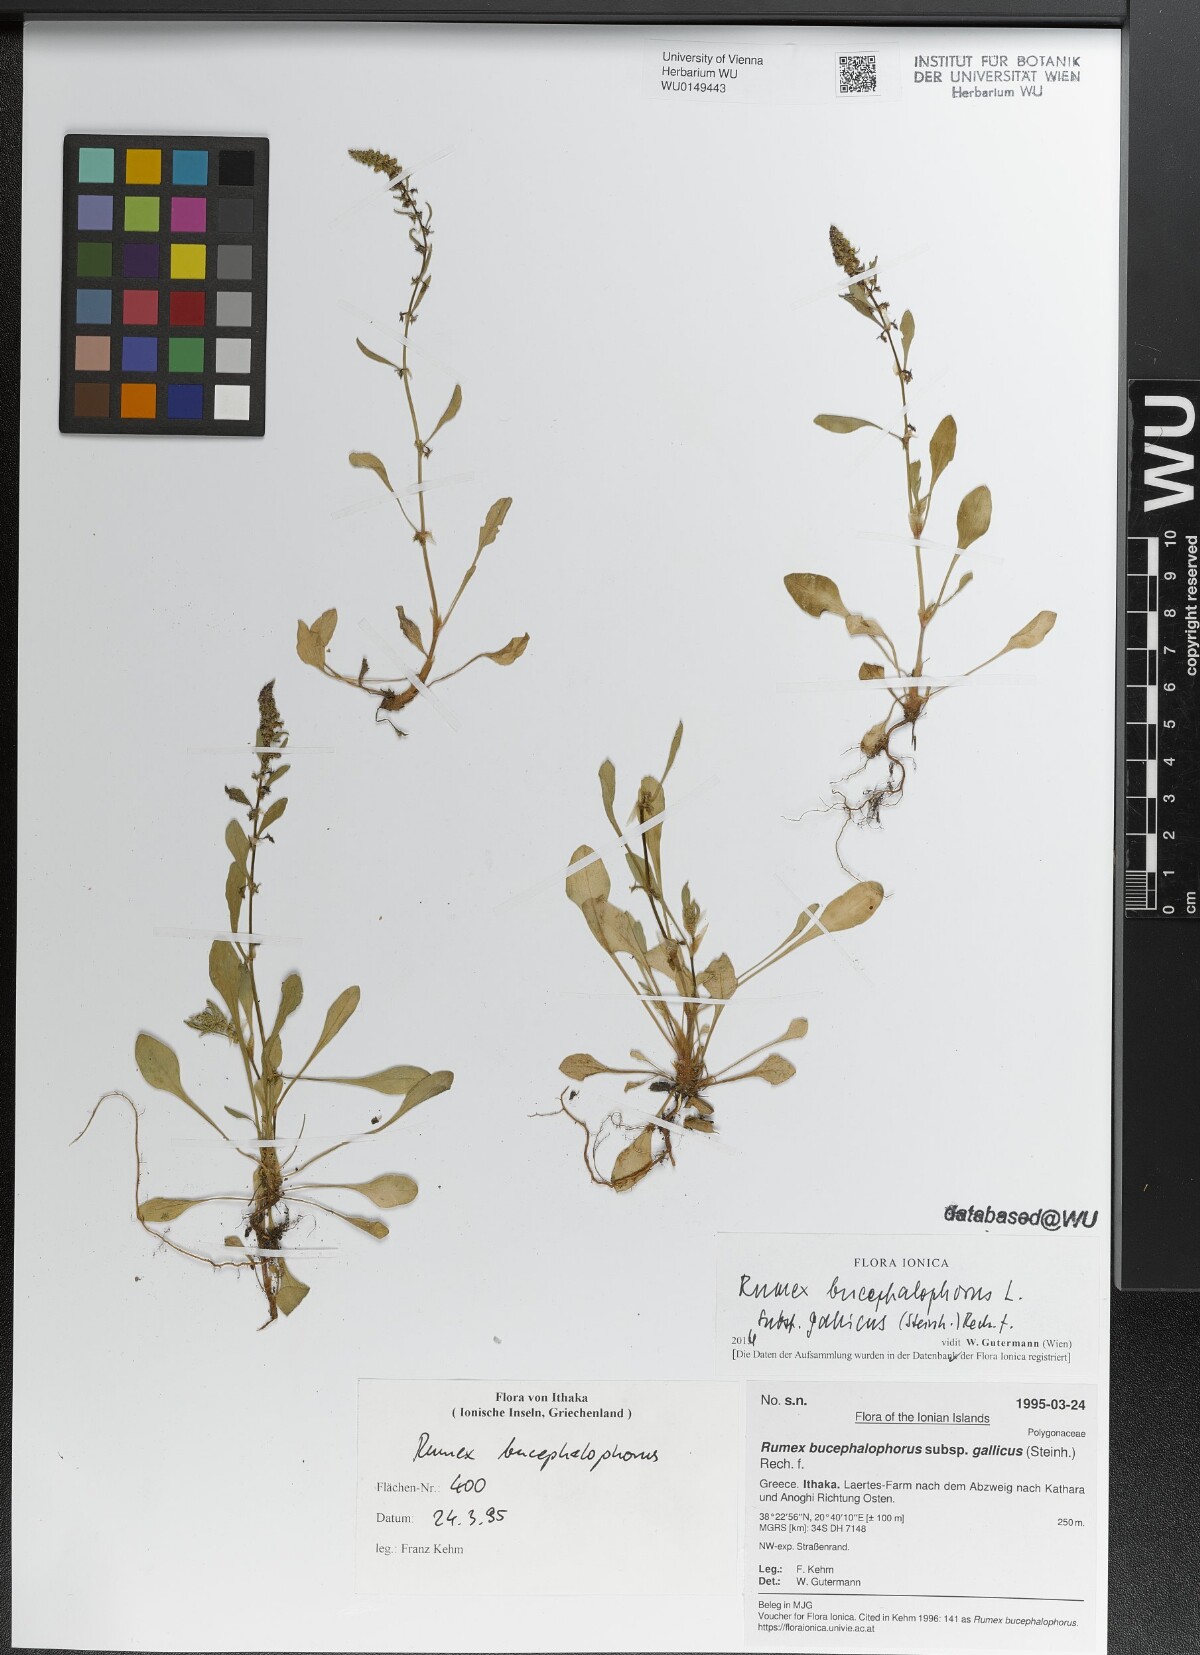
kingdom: Plantae
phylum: Tracheophyta
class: Magnoliopsida
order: Caryophyllales
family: Polygonaceae
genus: Rumex
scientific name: Rumex bucephalophorus
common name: Red dock
